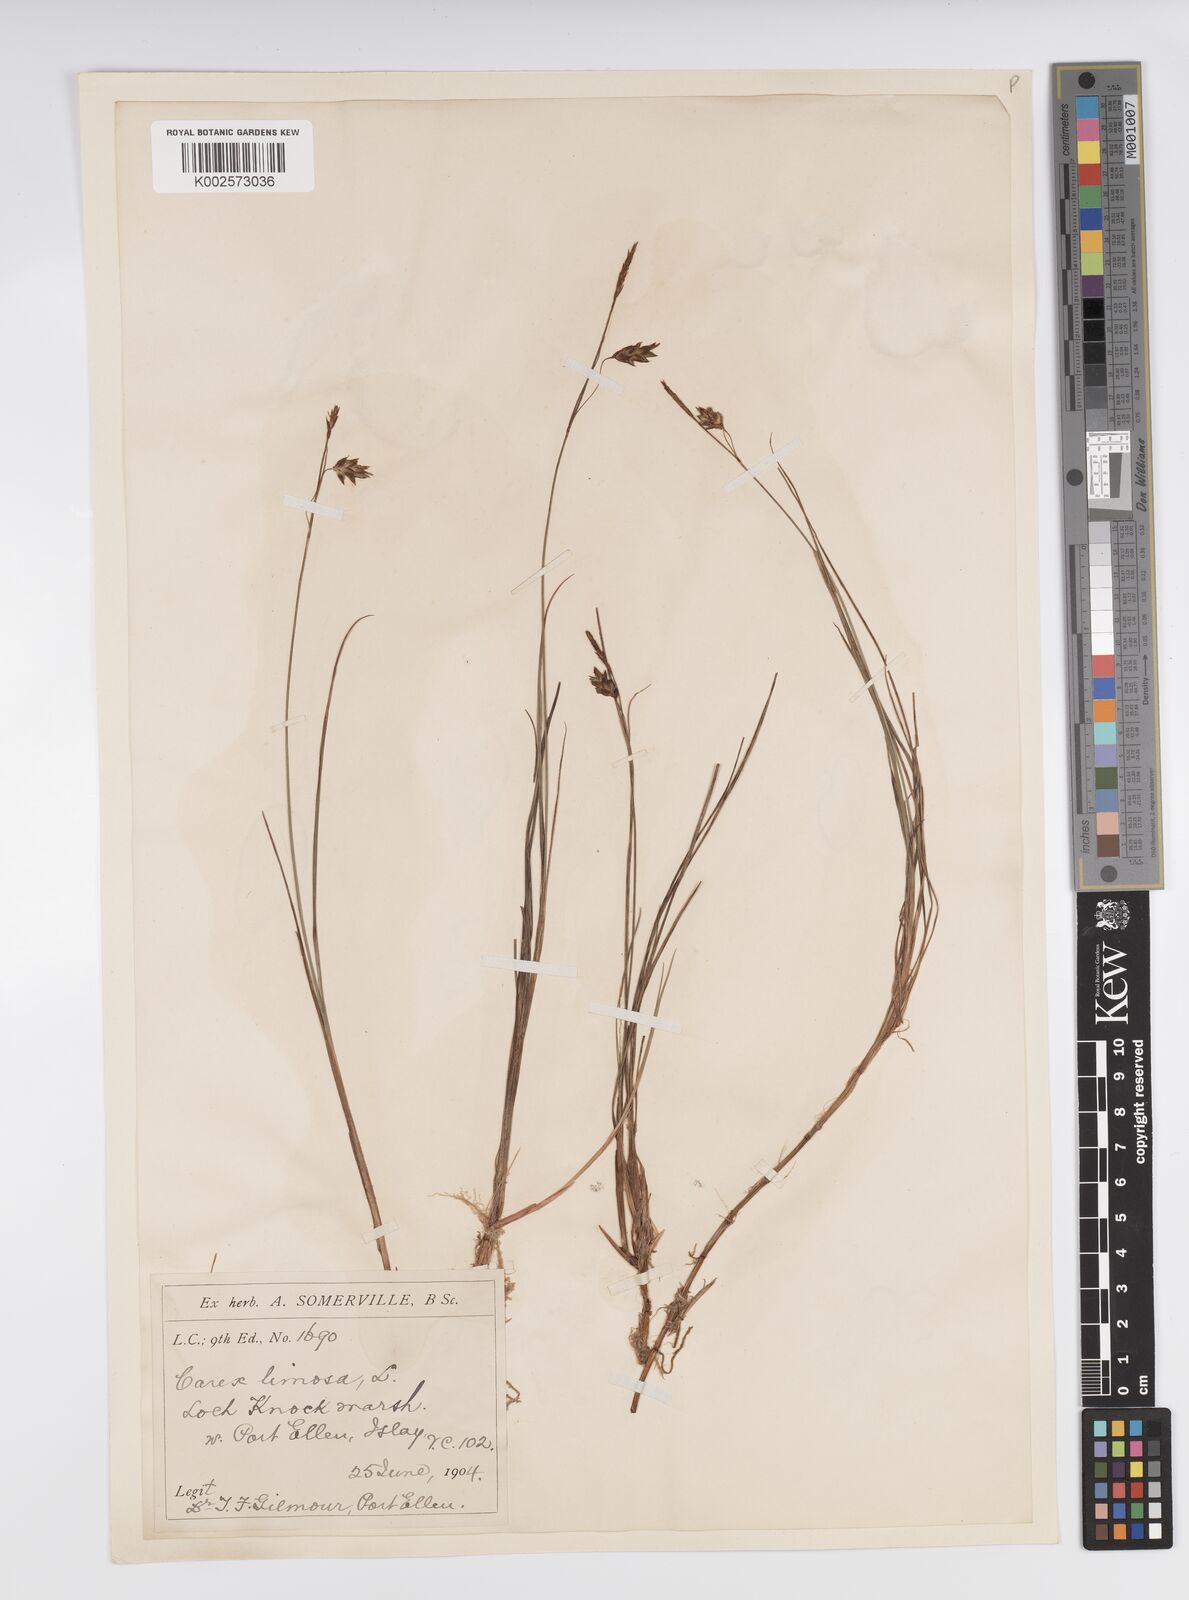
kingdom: Plantae
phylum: Tracheophyta
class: Liliopsida
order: Poales
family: Cyperaceae
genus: Carex
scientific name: Carex limosa
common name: Bog sedge
